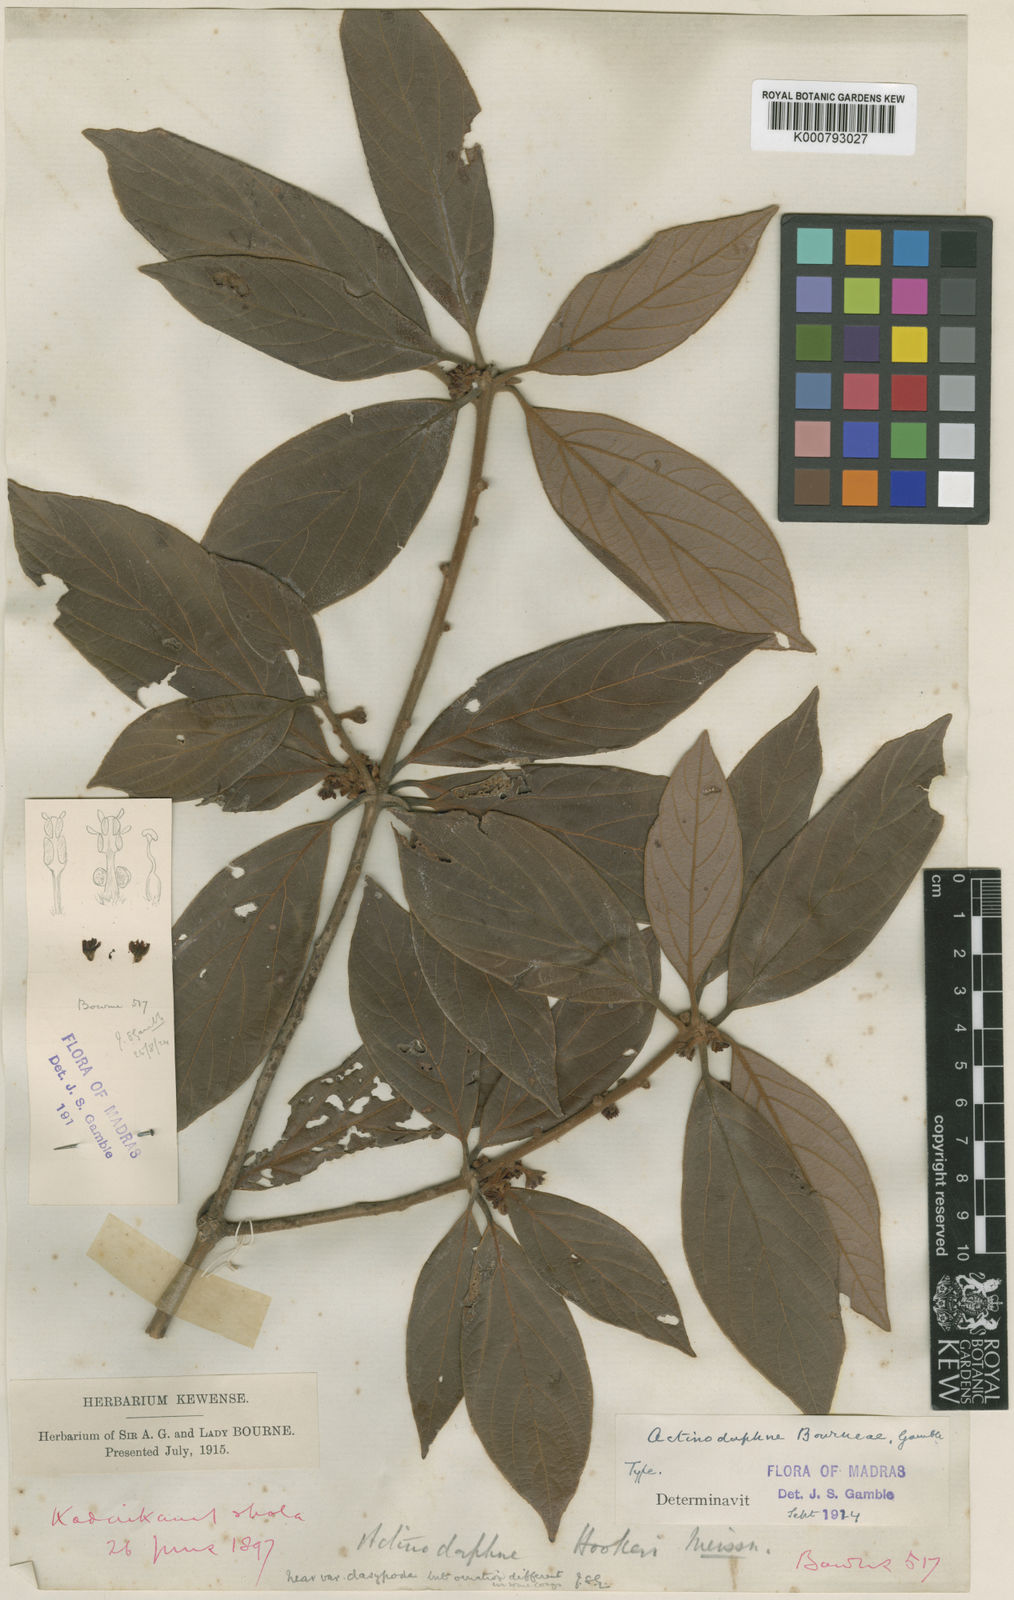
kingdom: Plantae
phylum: Tracheophyta
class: Magnoliopsida
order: Laurales
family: Lauraceae
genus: Actinodaphne
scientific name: Actinodaphne bourneae
